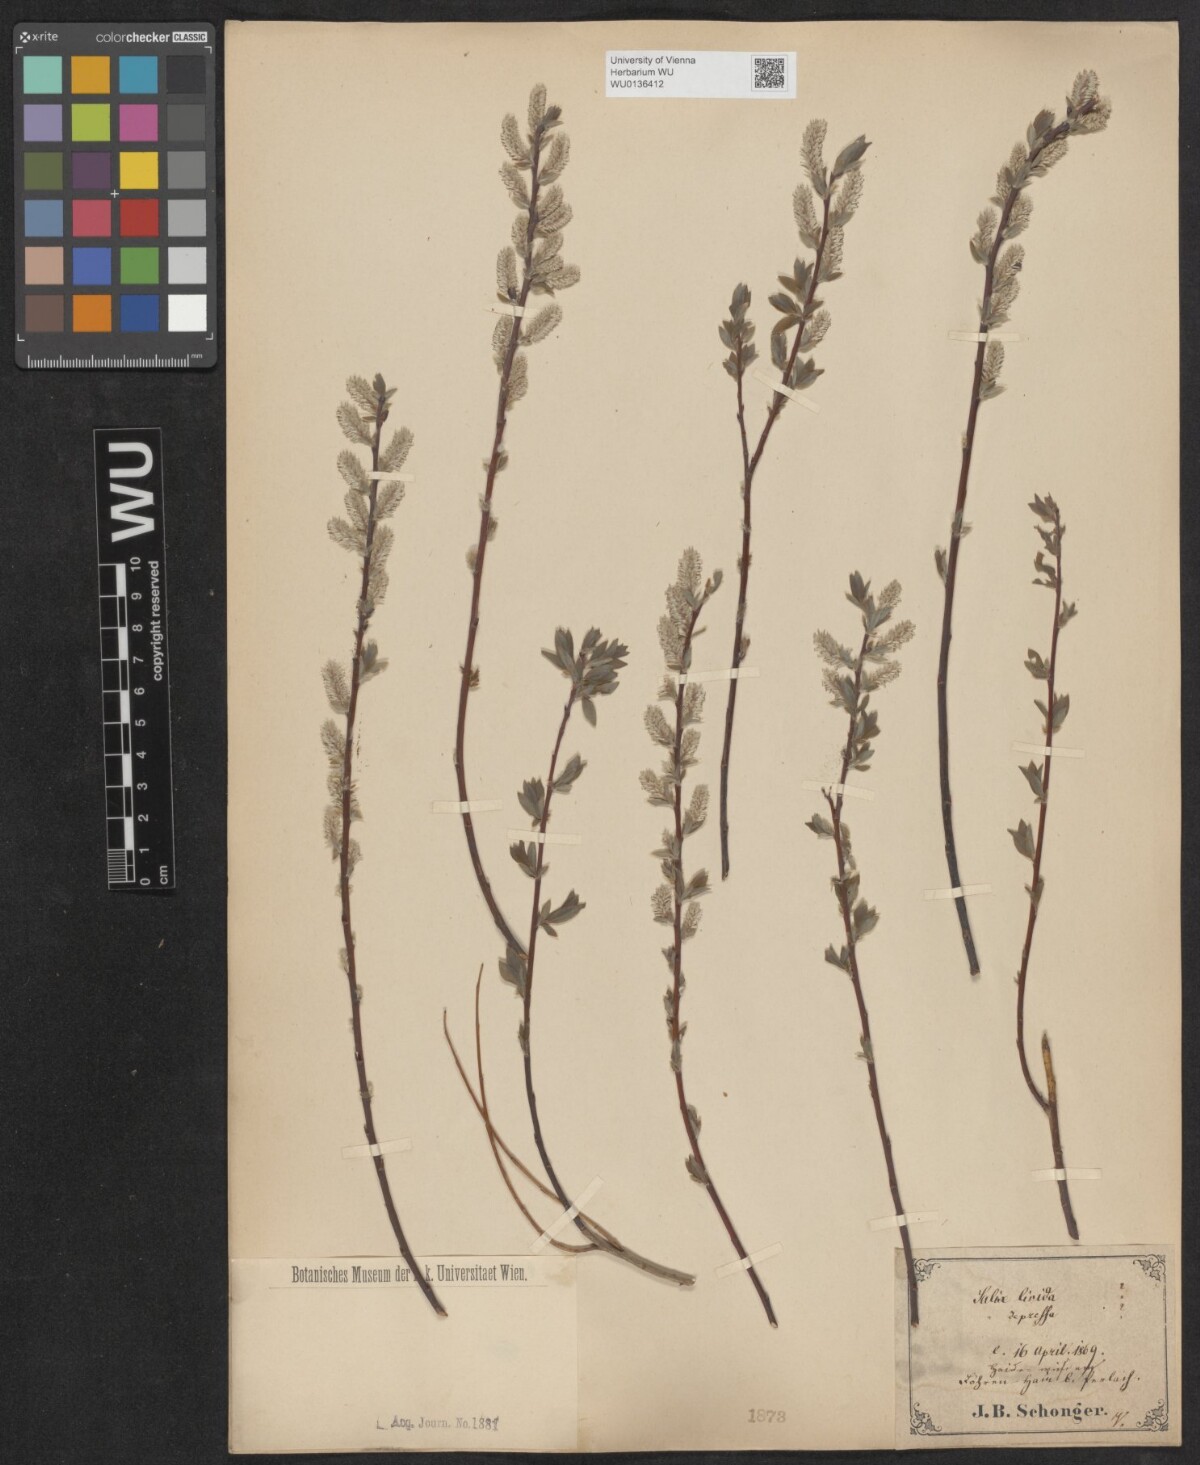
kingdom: Plantae
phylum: Tracheophyta
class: Magnoliopsida
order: Malpighiales
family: Salicaceae
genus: Salix
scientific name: Salix lanata
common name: Woolly willow
